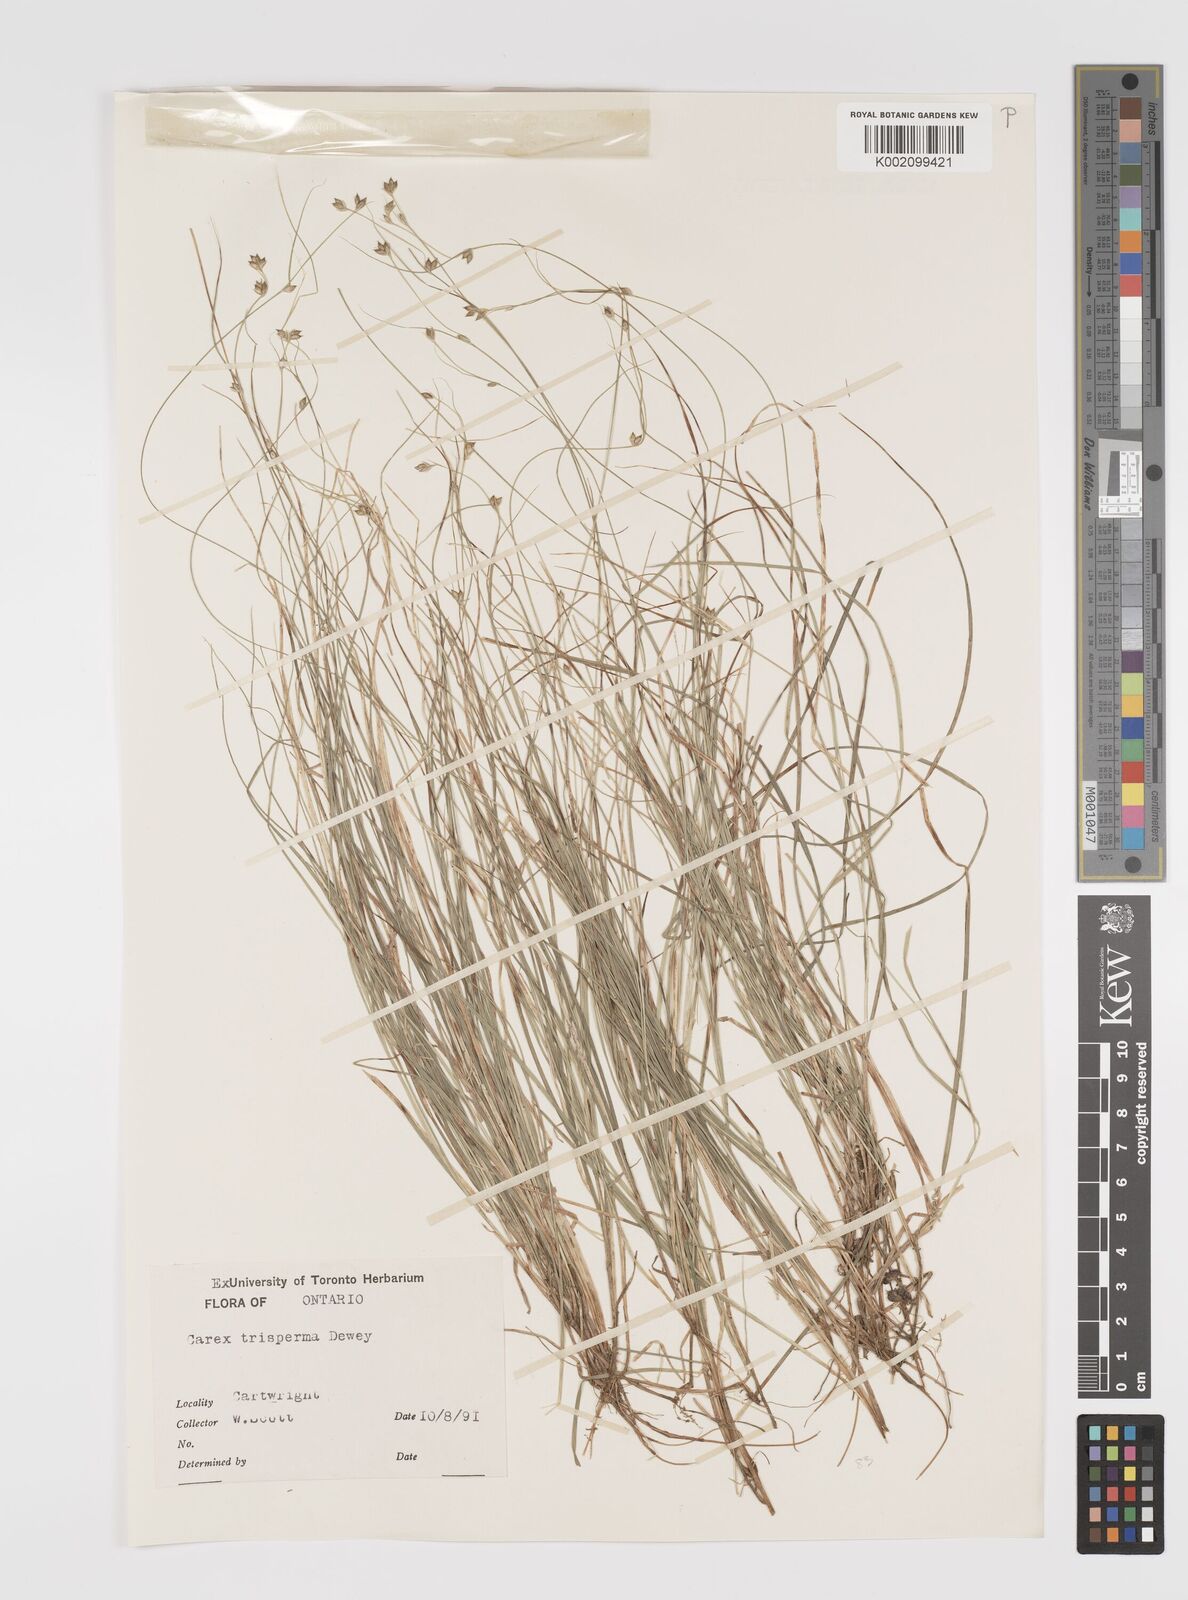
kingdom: Plantae
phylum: Tracheophyta
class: Liliopsida
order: Poales
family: Cyperaceae
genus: Carex
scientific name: Carex trisperma
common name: Three-seeded sedge
